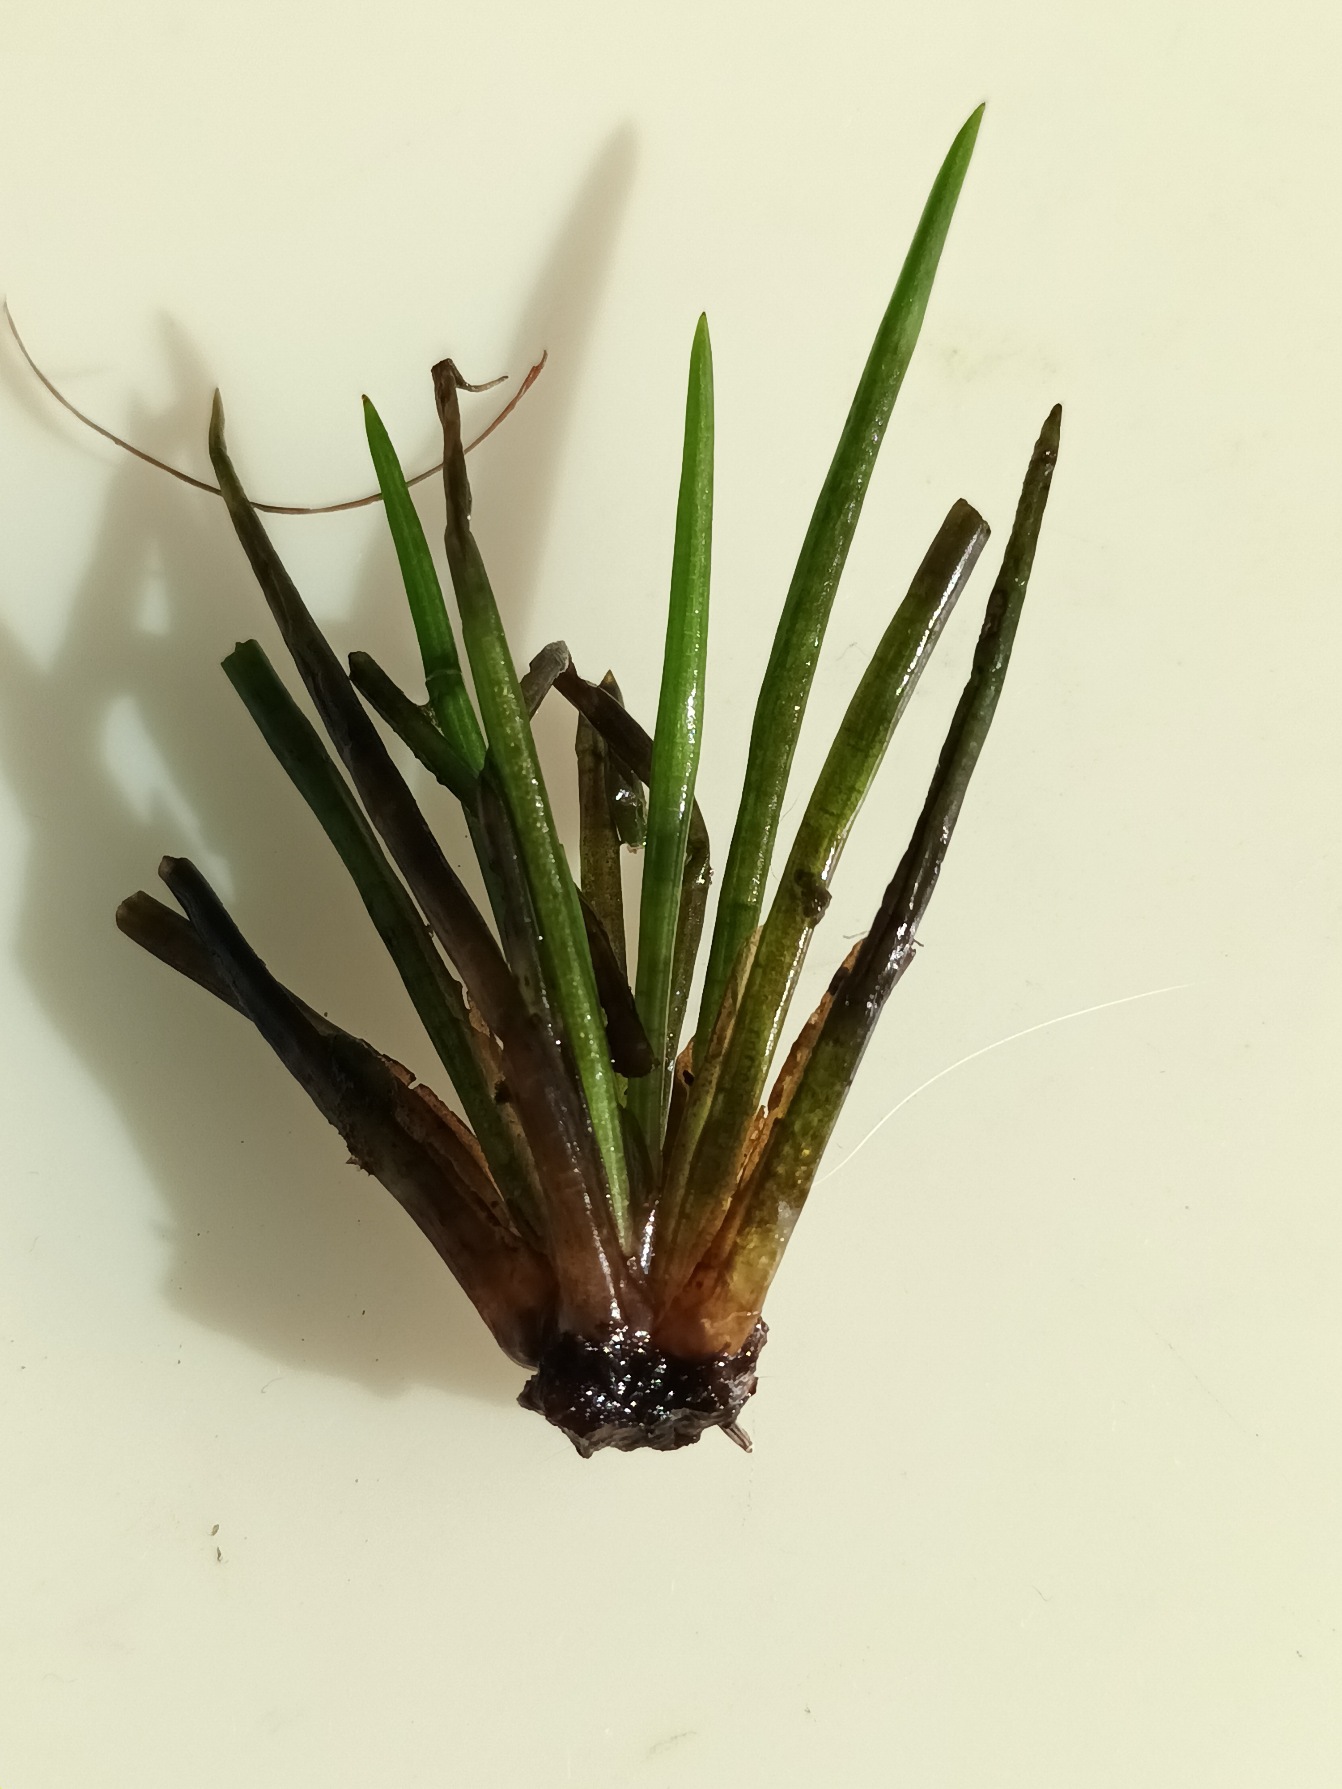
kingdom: Plantae
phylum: Tracheophyta
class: Lycopodiopsida
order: Isoetales
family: Isoetaceae
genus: Isoetes
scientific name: Isoetes lacustris
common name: Sortgrøn brasenføde
